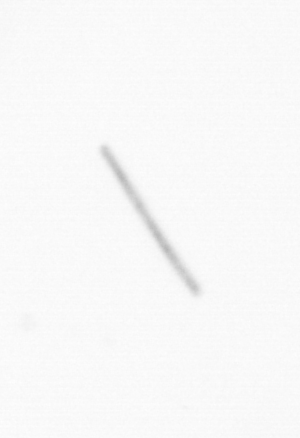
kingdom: Chromista
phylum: Ochrophyta
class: Bacillariophyceae
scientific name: Bacillariophyceae
